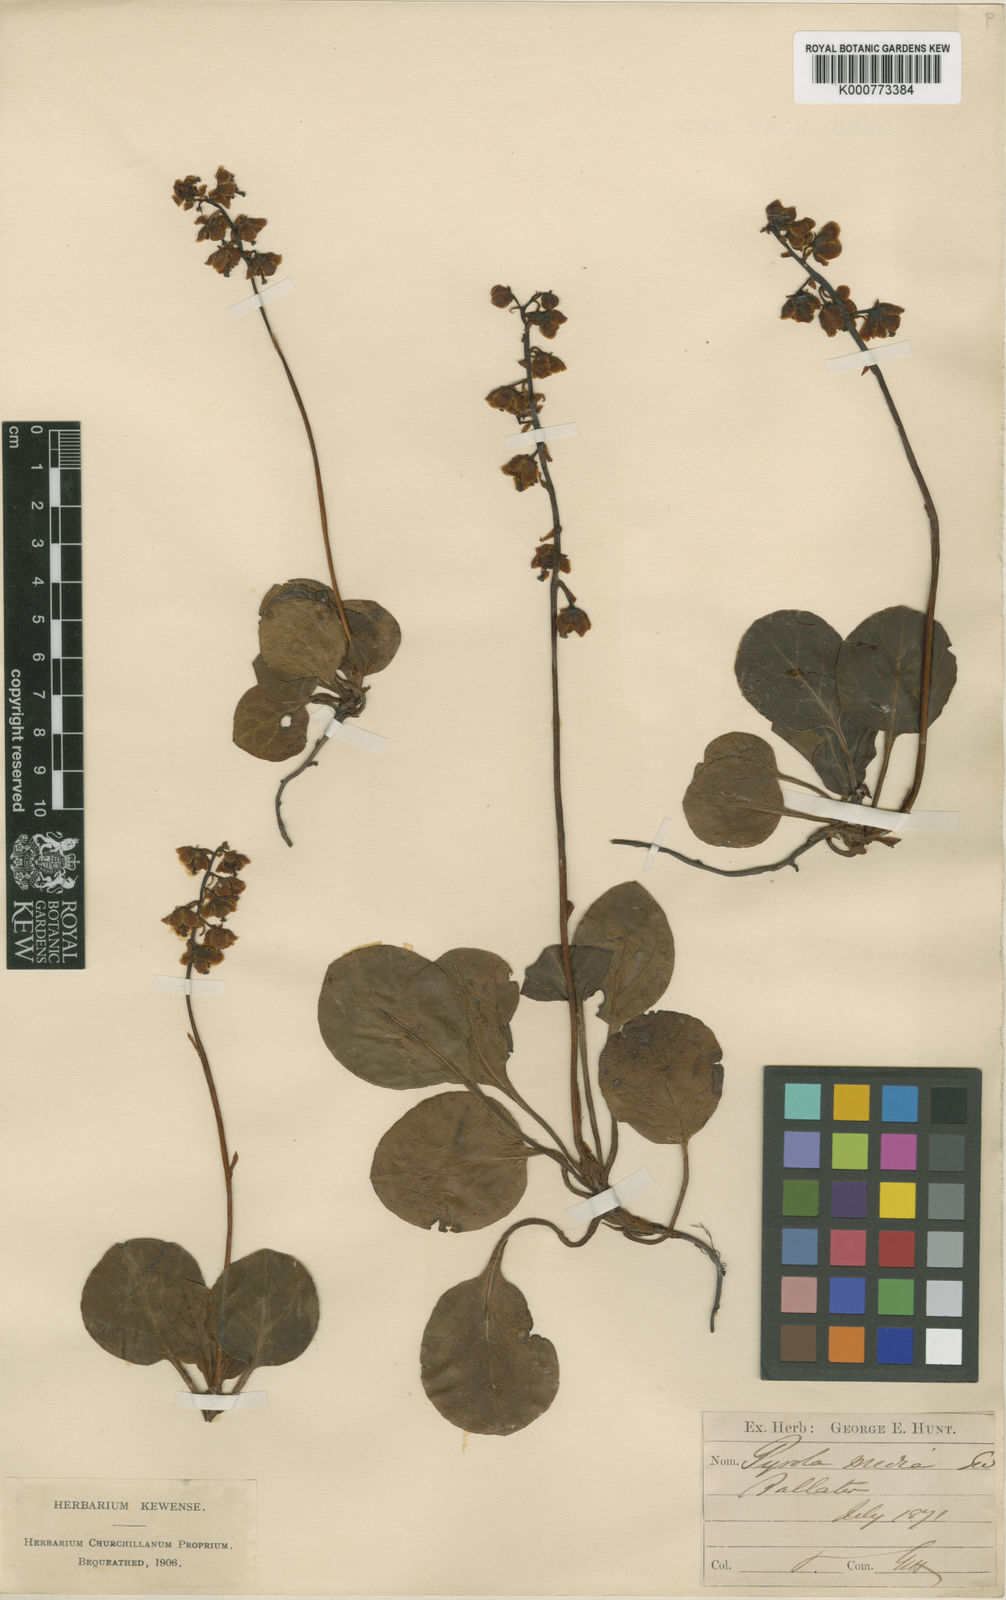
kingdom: Plantae
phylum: Tracheophyta
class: Magnoliopsida
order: Ericales
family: Ericaceae
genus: Pyrola
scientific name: Pyrola media
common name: Intermediate wintergreen
